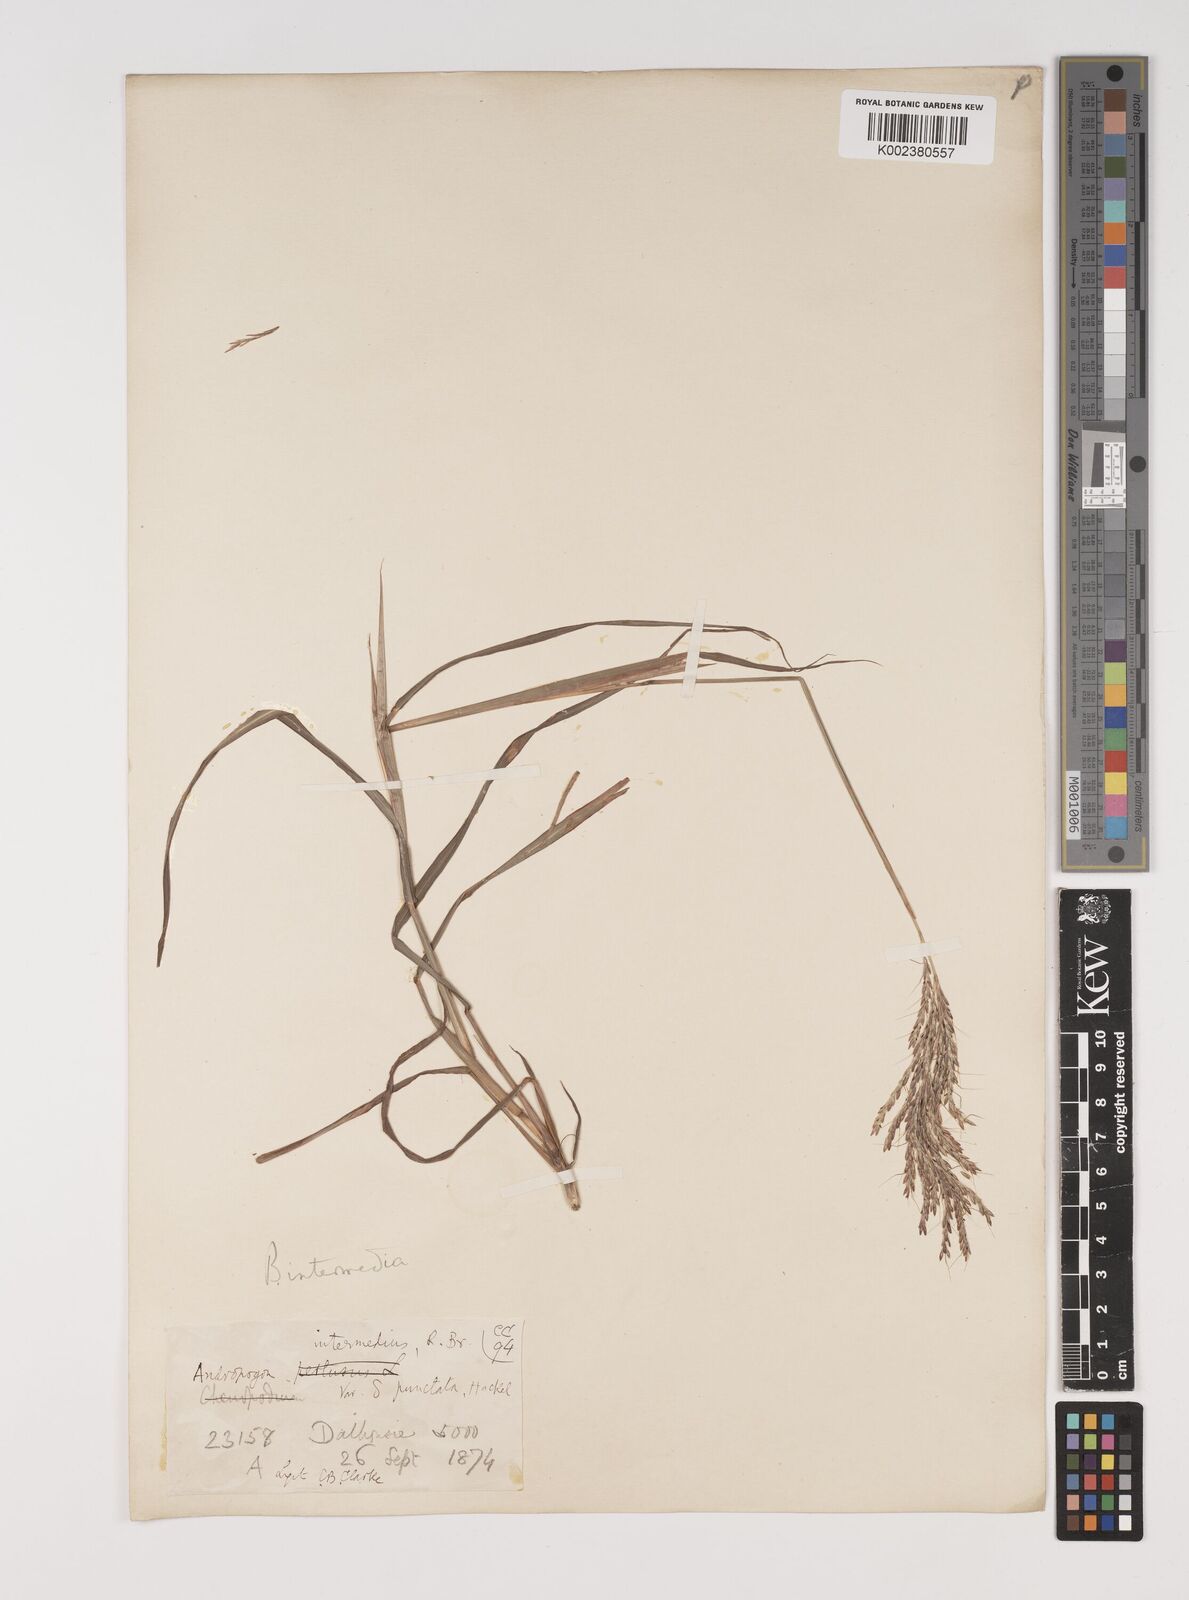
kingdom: Plantae
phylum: Tracheophyta
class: Liliopsida
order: Poales
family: Poaceae
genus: Bothriochloa
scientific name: Bothriochloa bladhii
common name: Caucasian bluestem
